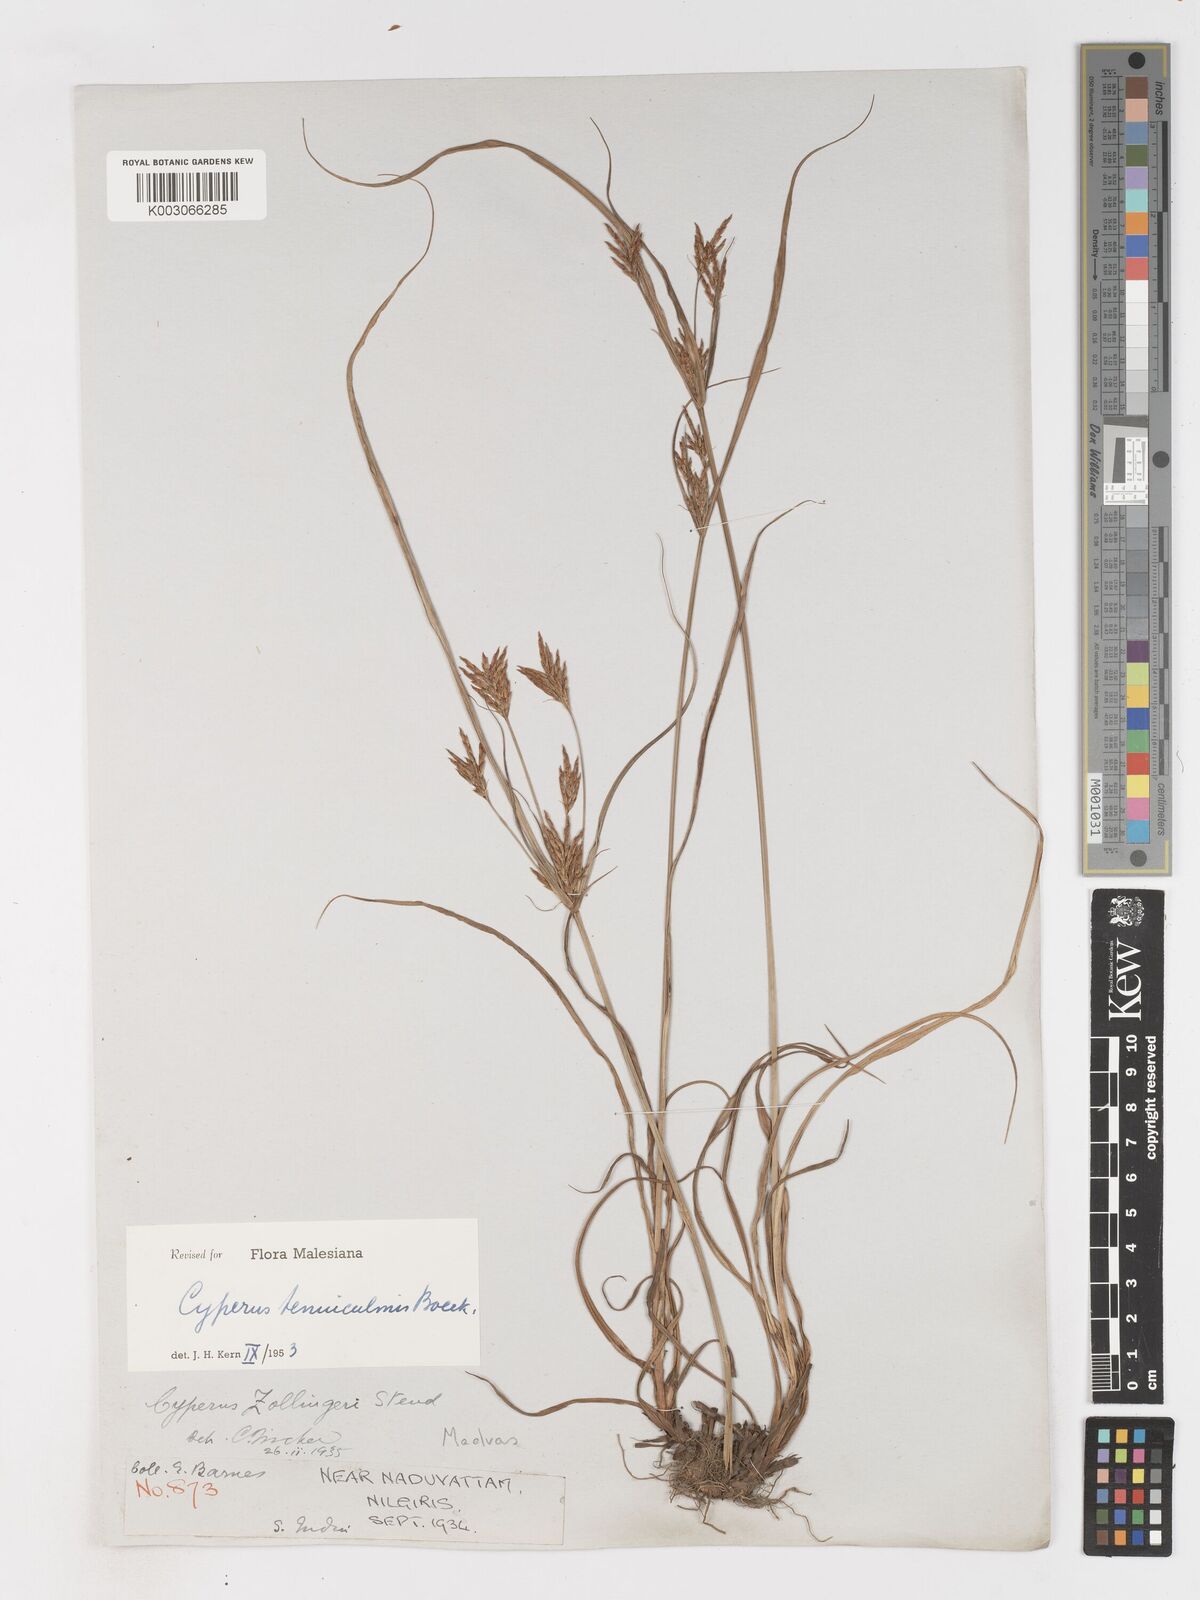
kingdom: Plantae
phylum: Tracheophyta
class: Liliopsida
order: Poales
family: Cyperaceae
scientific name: Cyperaceae
